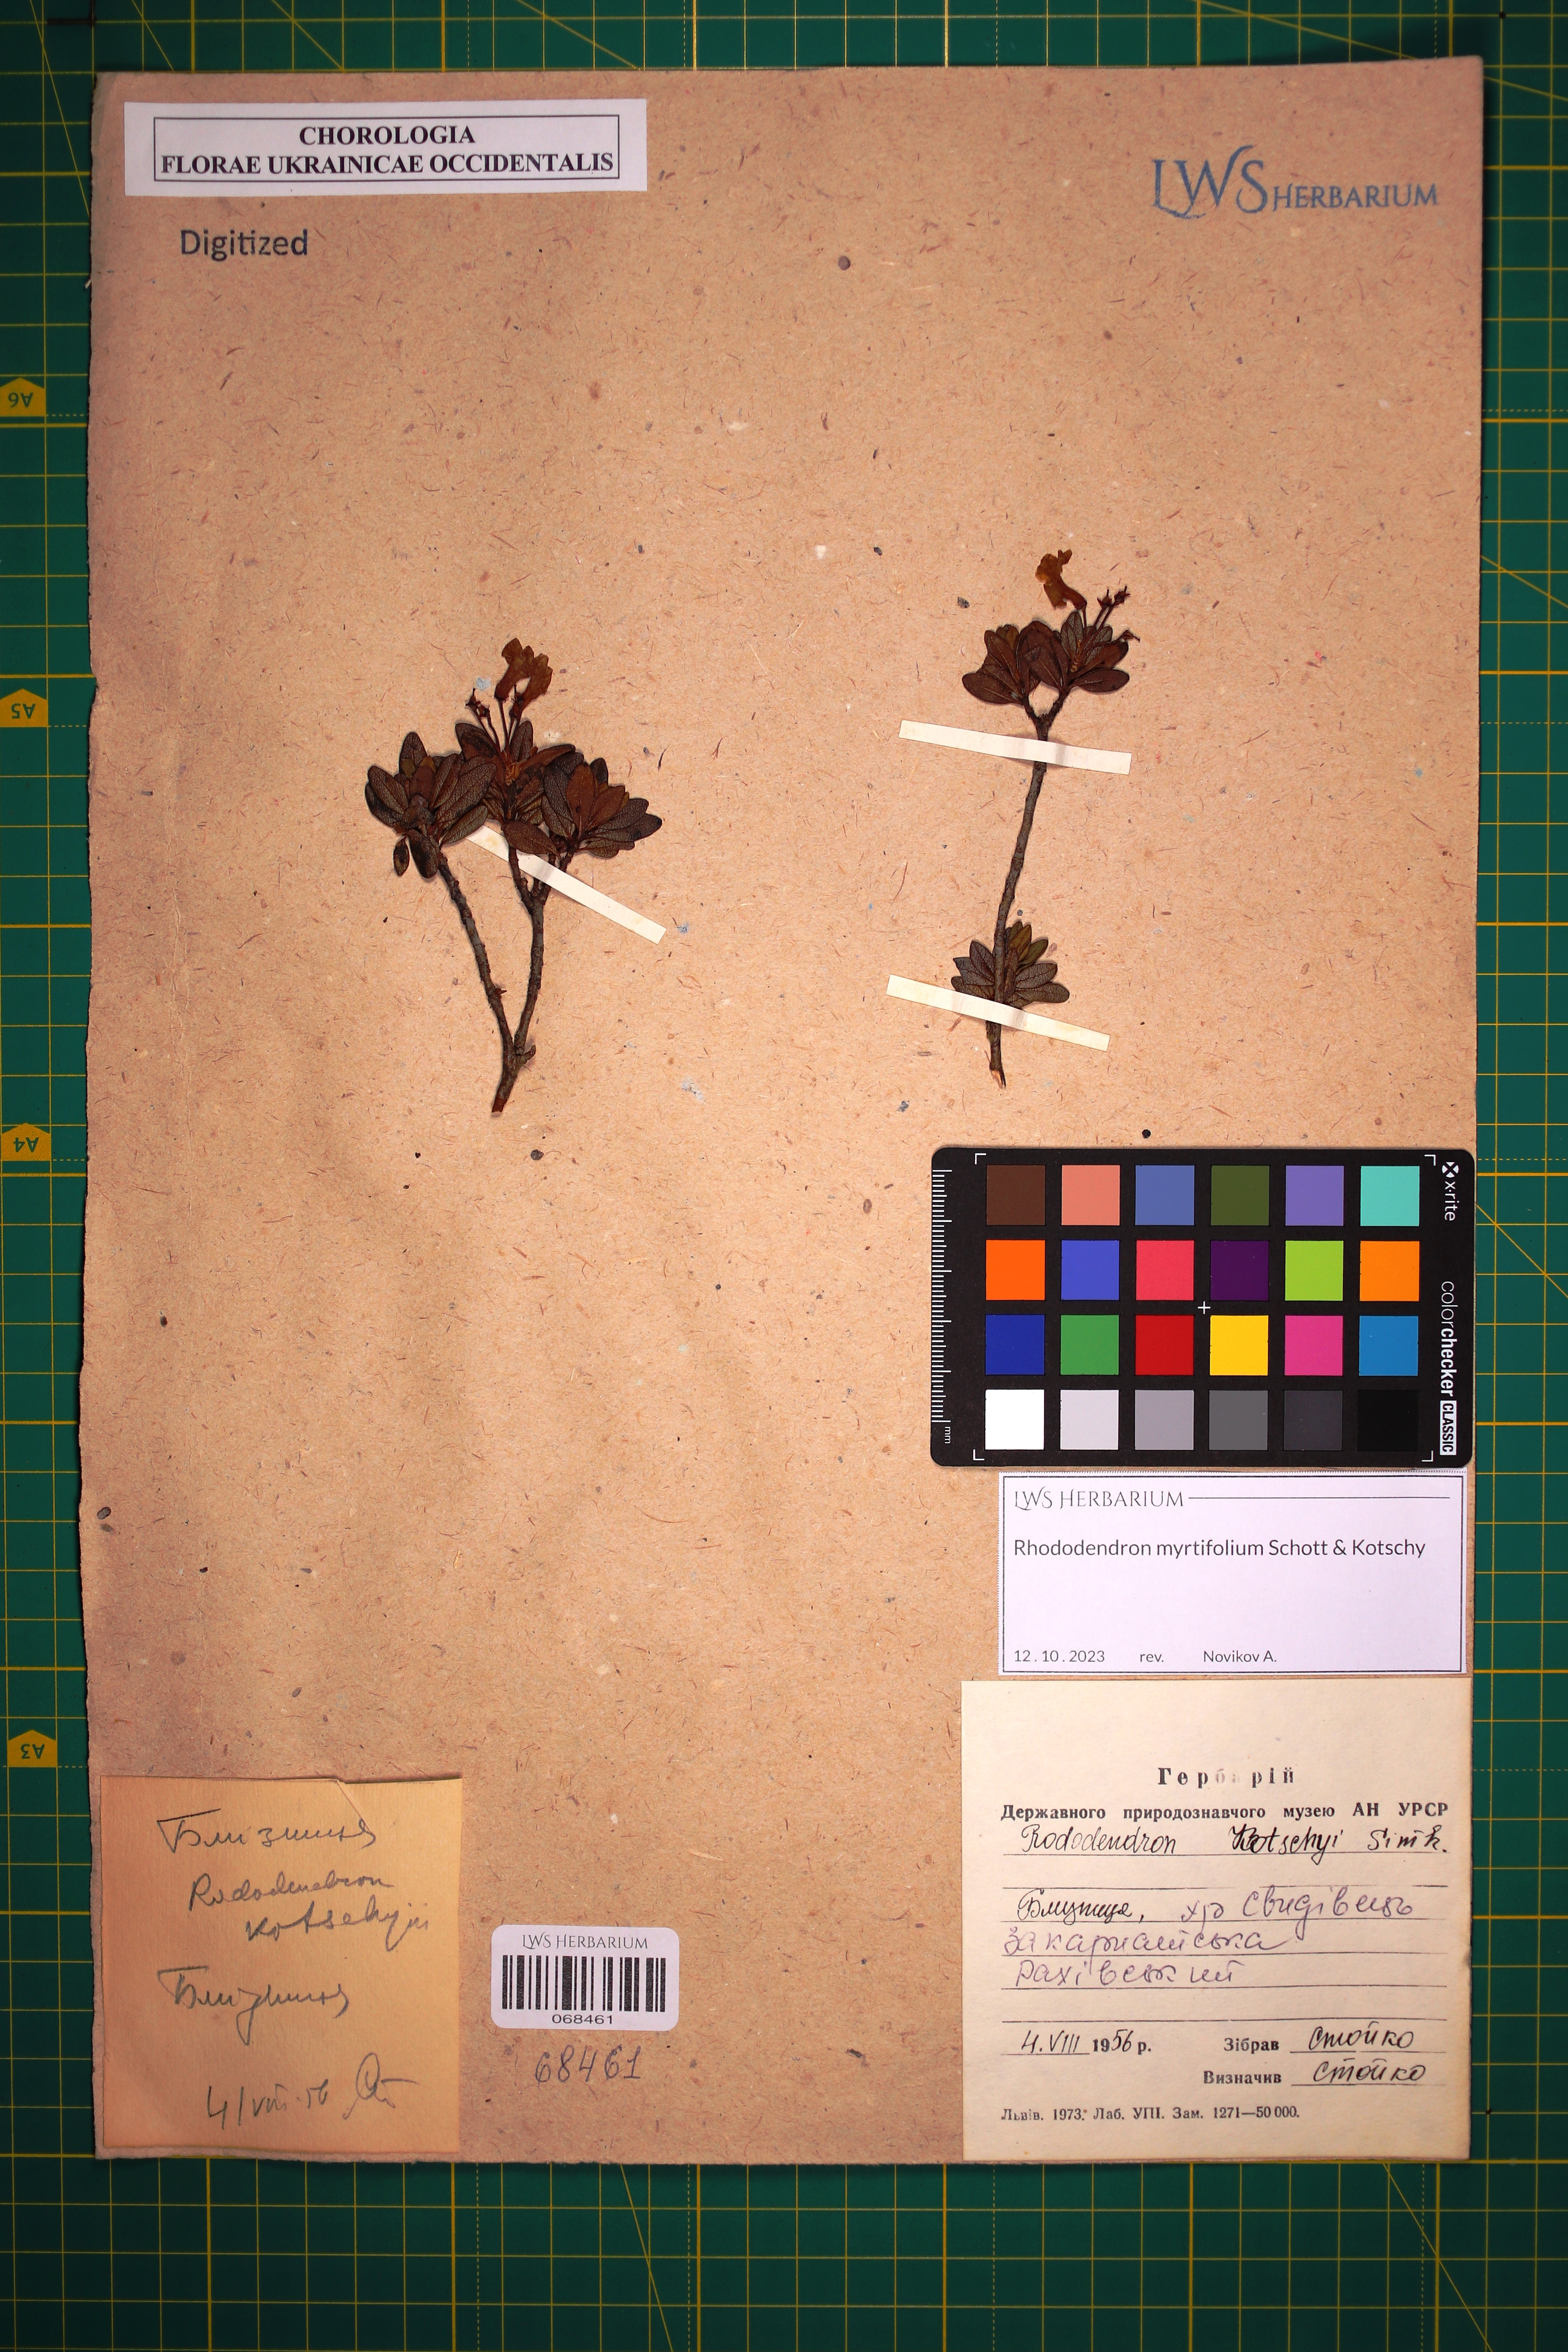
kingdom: Plantae
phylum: Tracheophyta
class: Magnoliopsida
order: Ericales
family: Ericaceae
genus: Rhododendron
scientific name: Rhododendron kotschyi
